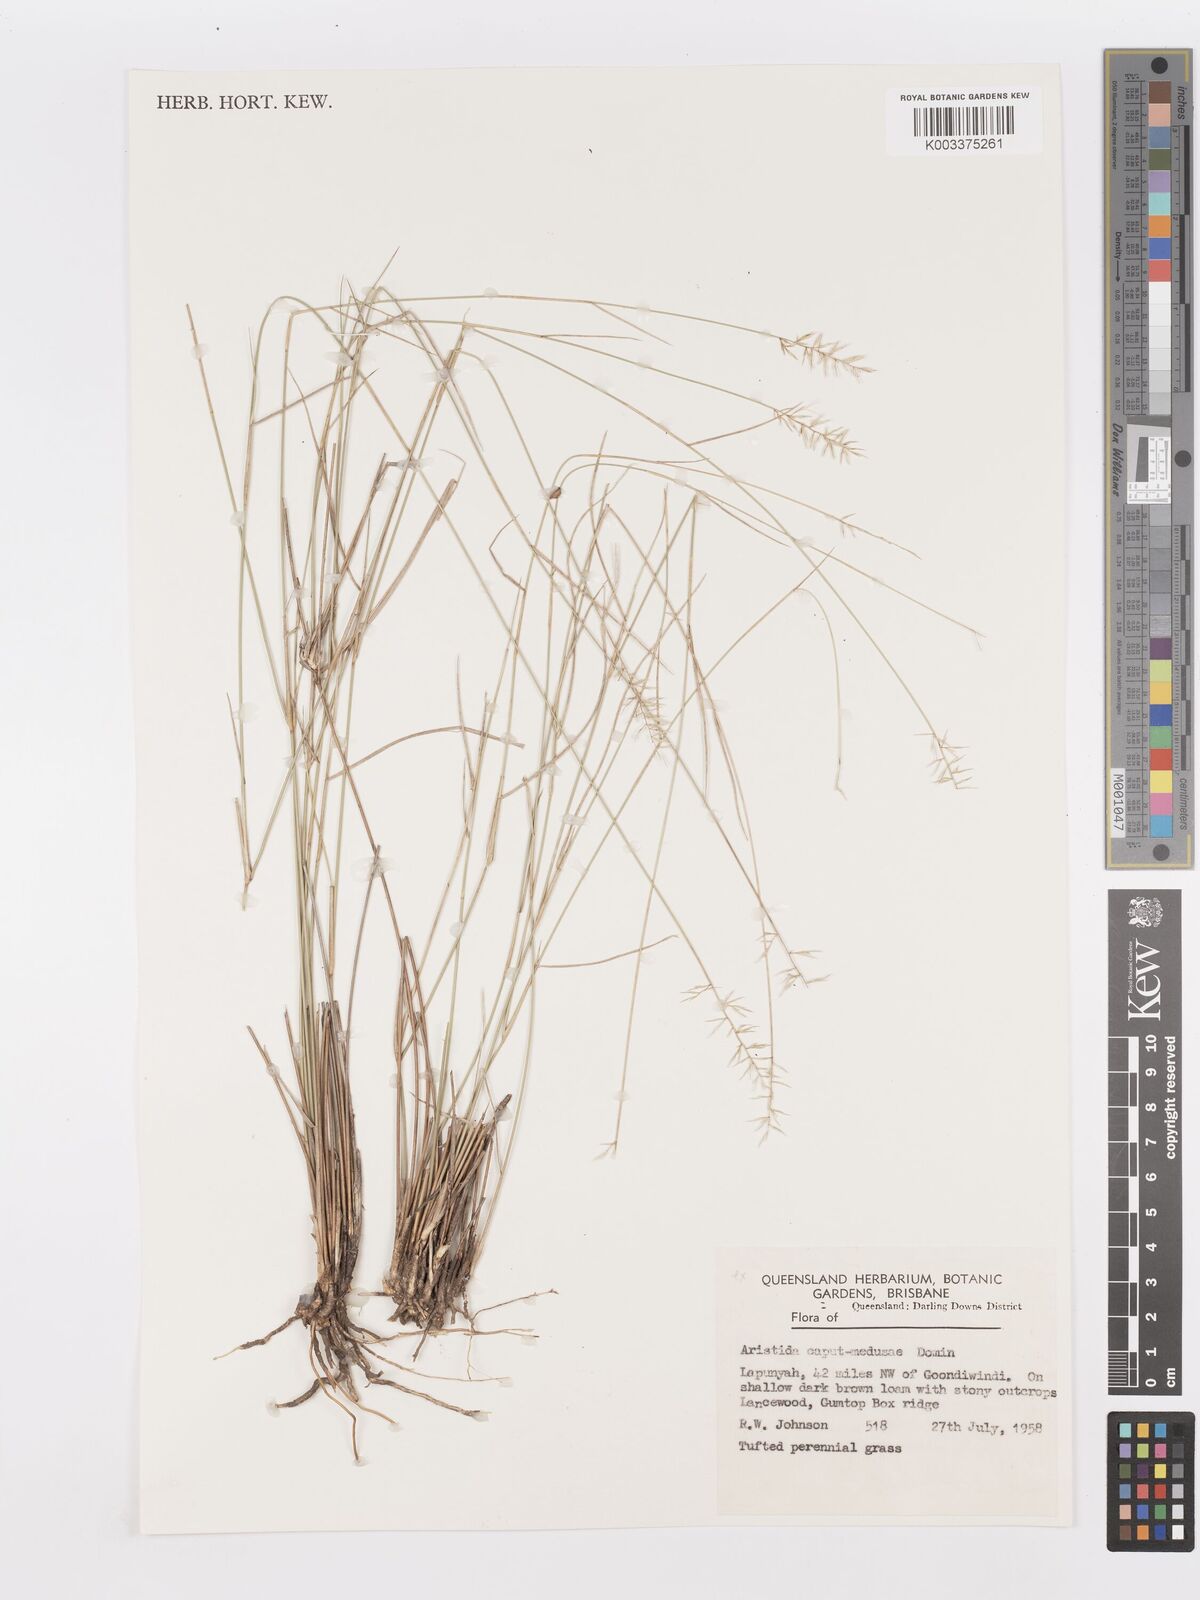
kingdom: Plantae
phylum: Tracheophyta
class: Liliopsida
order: Poales
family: Poaceae
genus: Aristida
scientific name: Aristida caput-medusae
